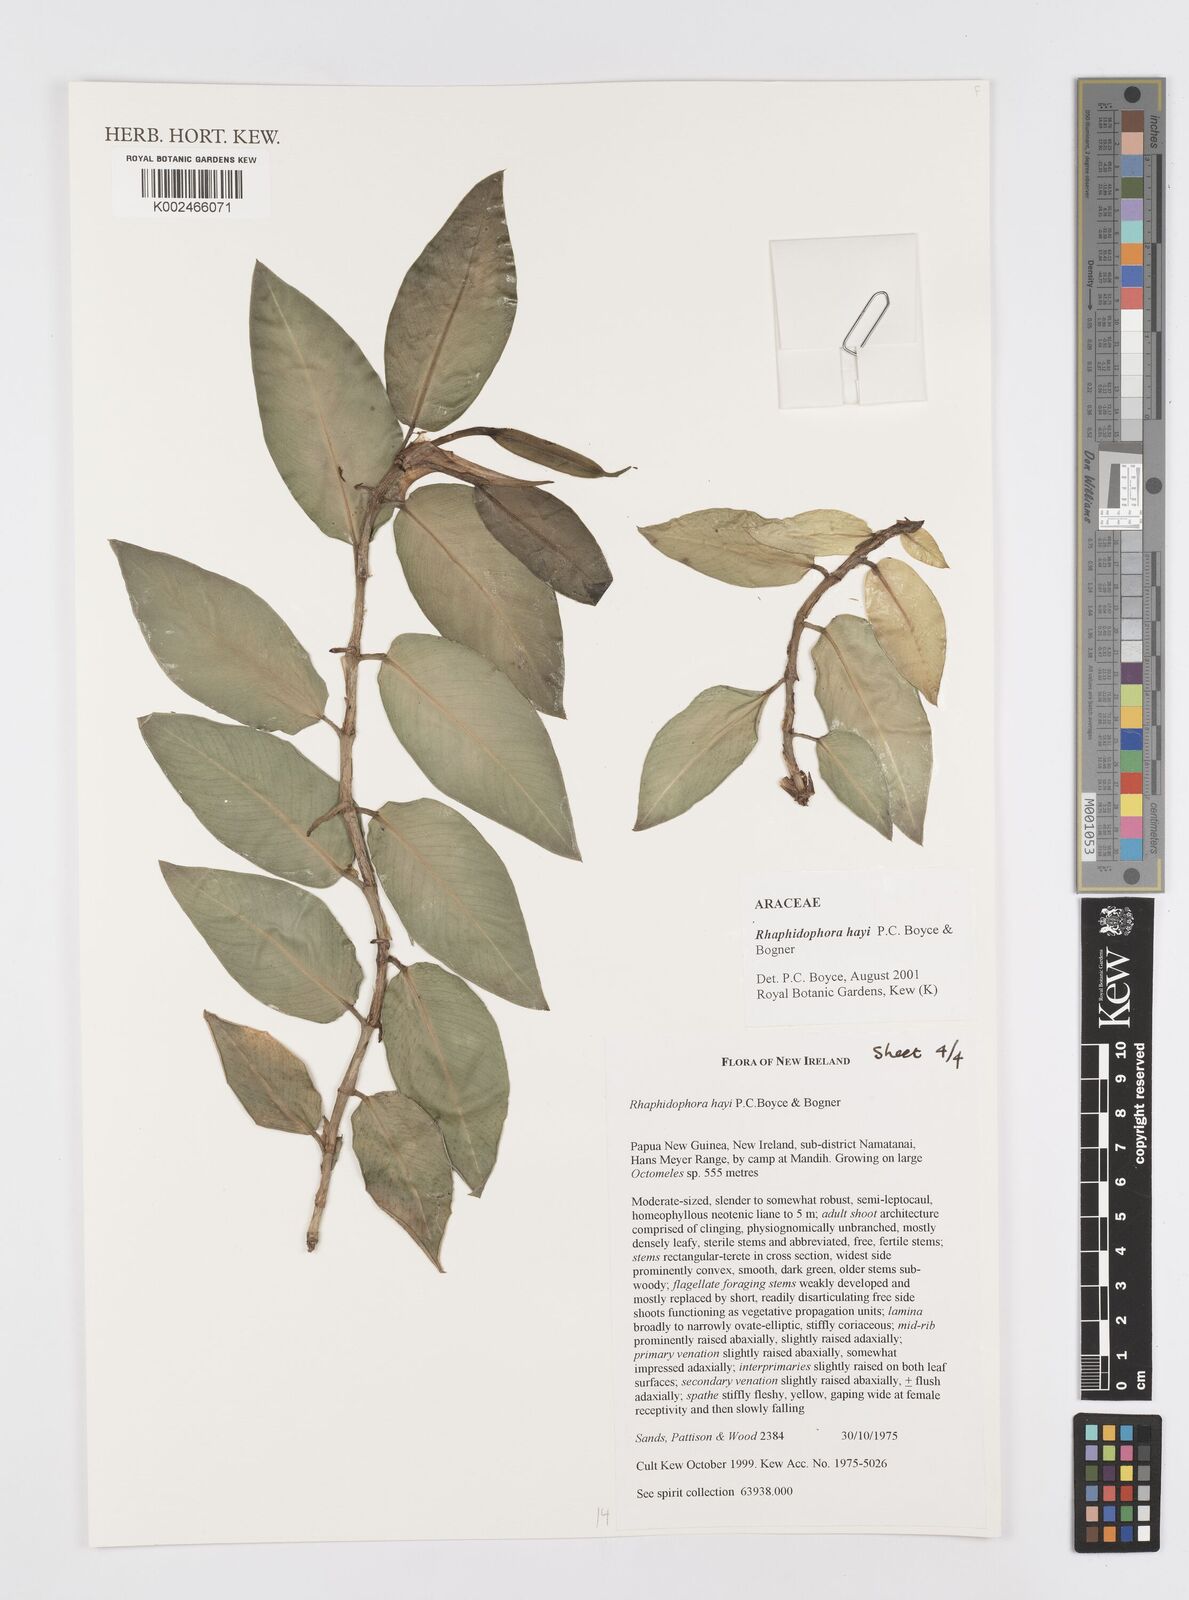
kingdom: Plantae
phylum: Tracheophyta
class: Liliopsida
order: Alismatales
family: Araceae
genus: Rhaphidophora
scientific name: Rhaphidophora hayi
